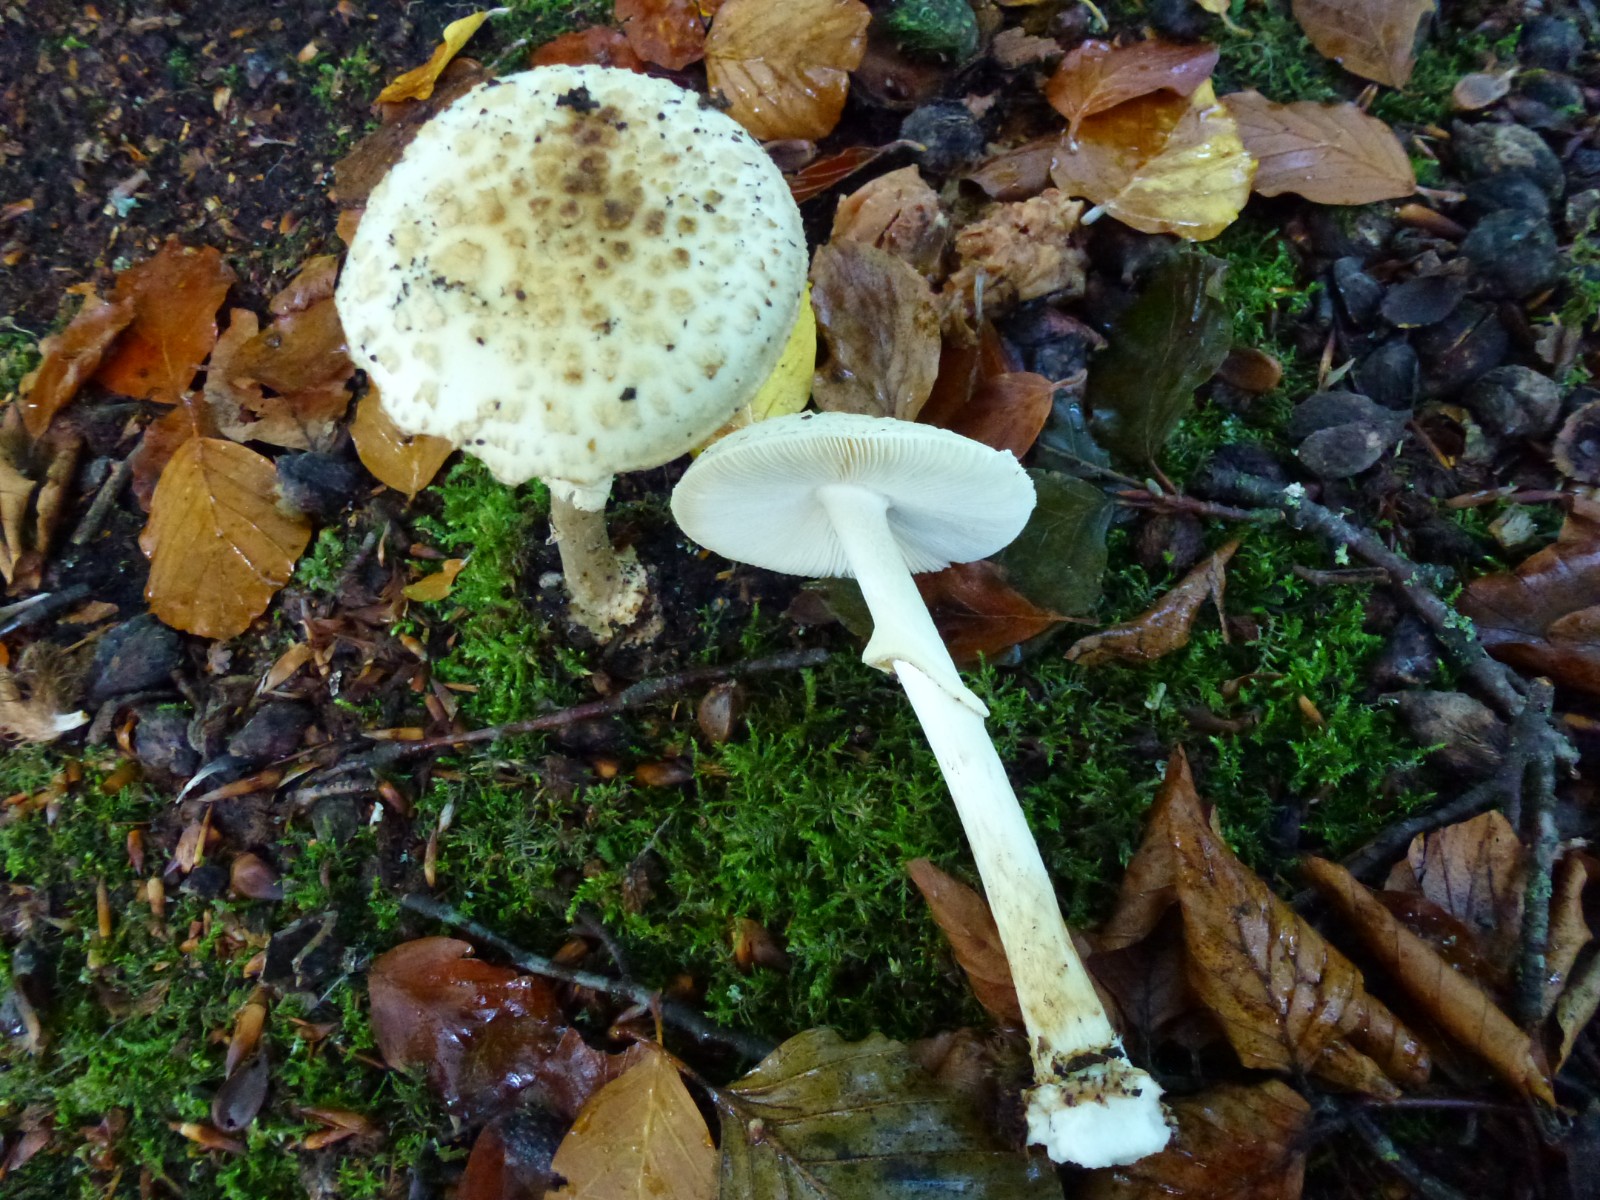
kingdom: Fungi
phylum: Basidiomycota
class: Agaricomycetes
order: Agaricales
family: Amanitaceae
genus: Amanita
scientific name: Amanita citrina
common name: kugleknoldet fluesvamp
